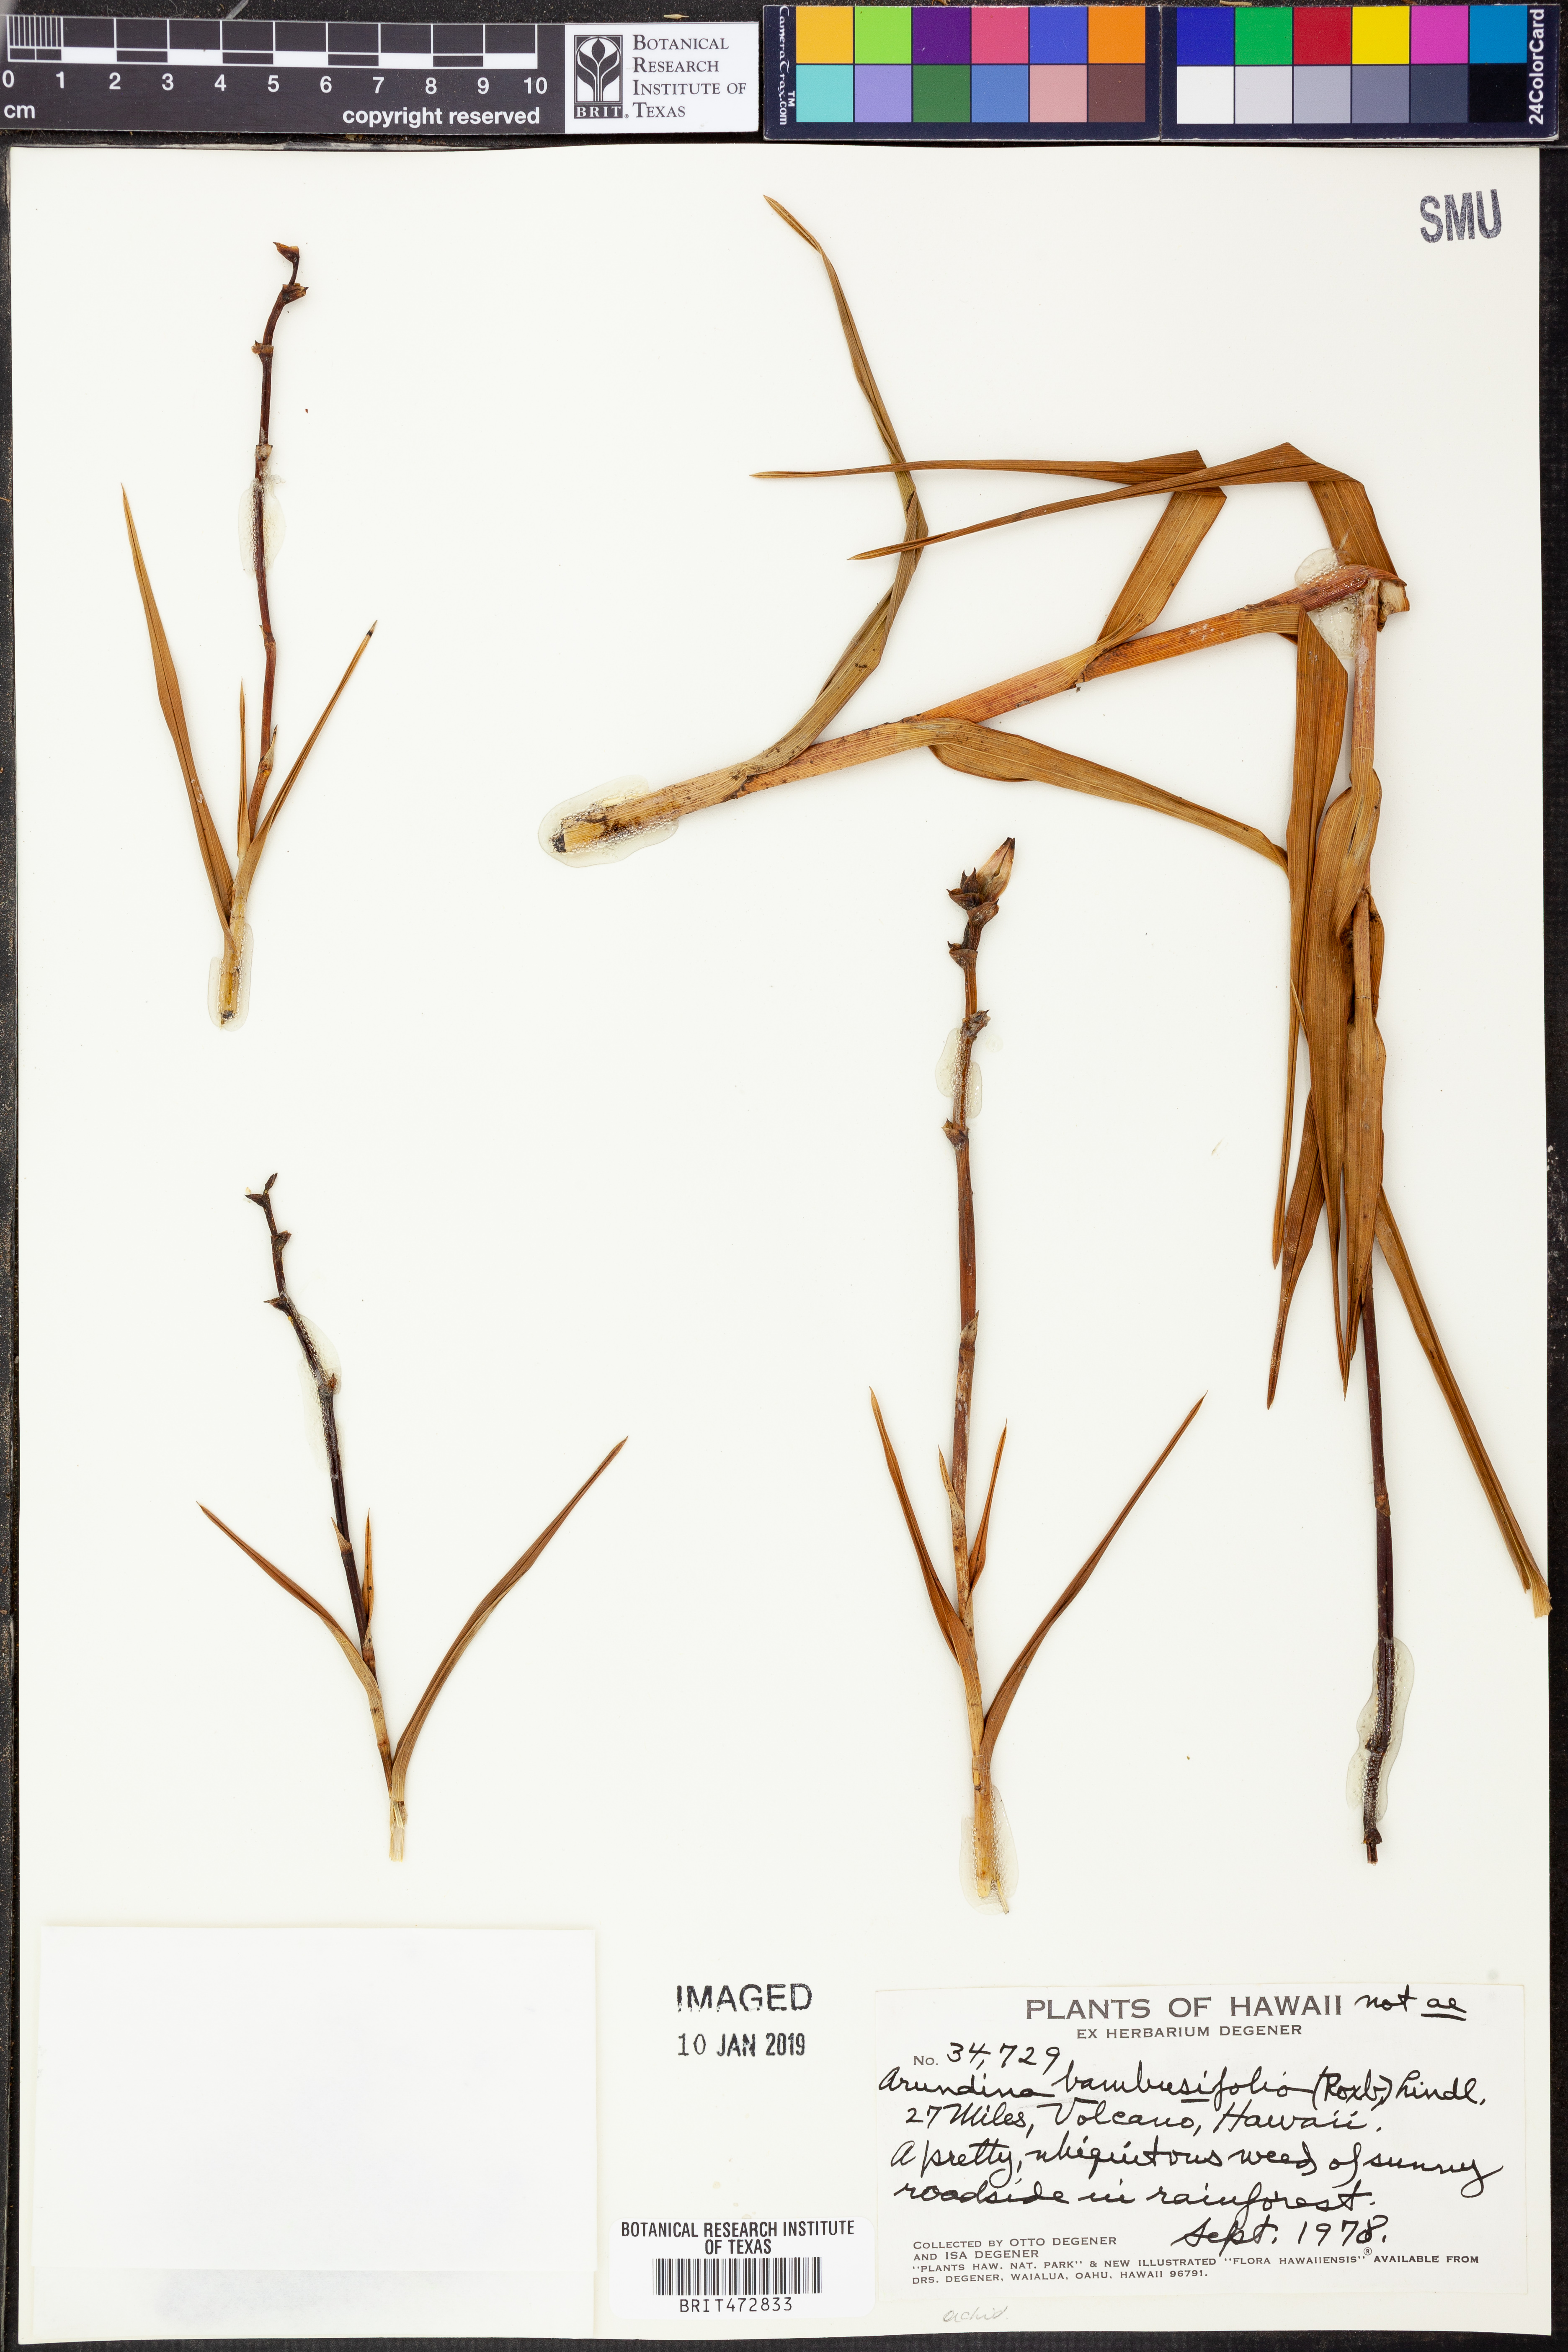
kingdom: Plantae
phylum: Tracheophyta
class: Liliopsida
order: Asparagales
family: Orchidaceae
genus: Arundina
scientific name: Arundina graminifolia
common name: Bamboo orchid
